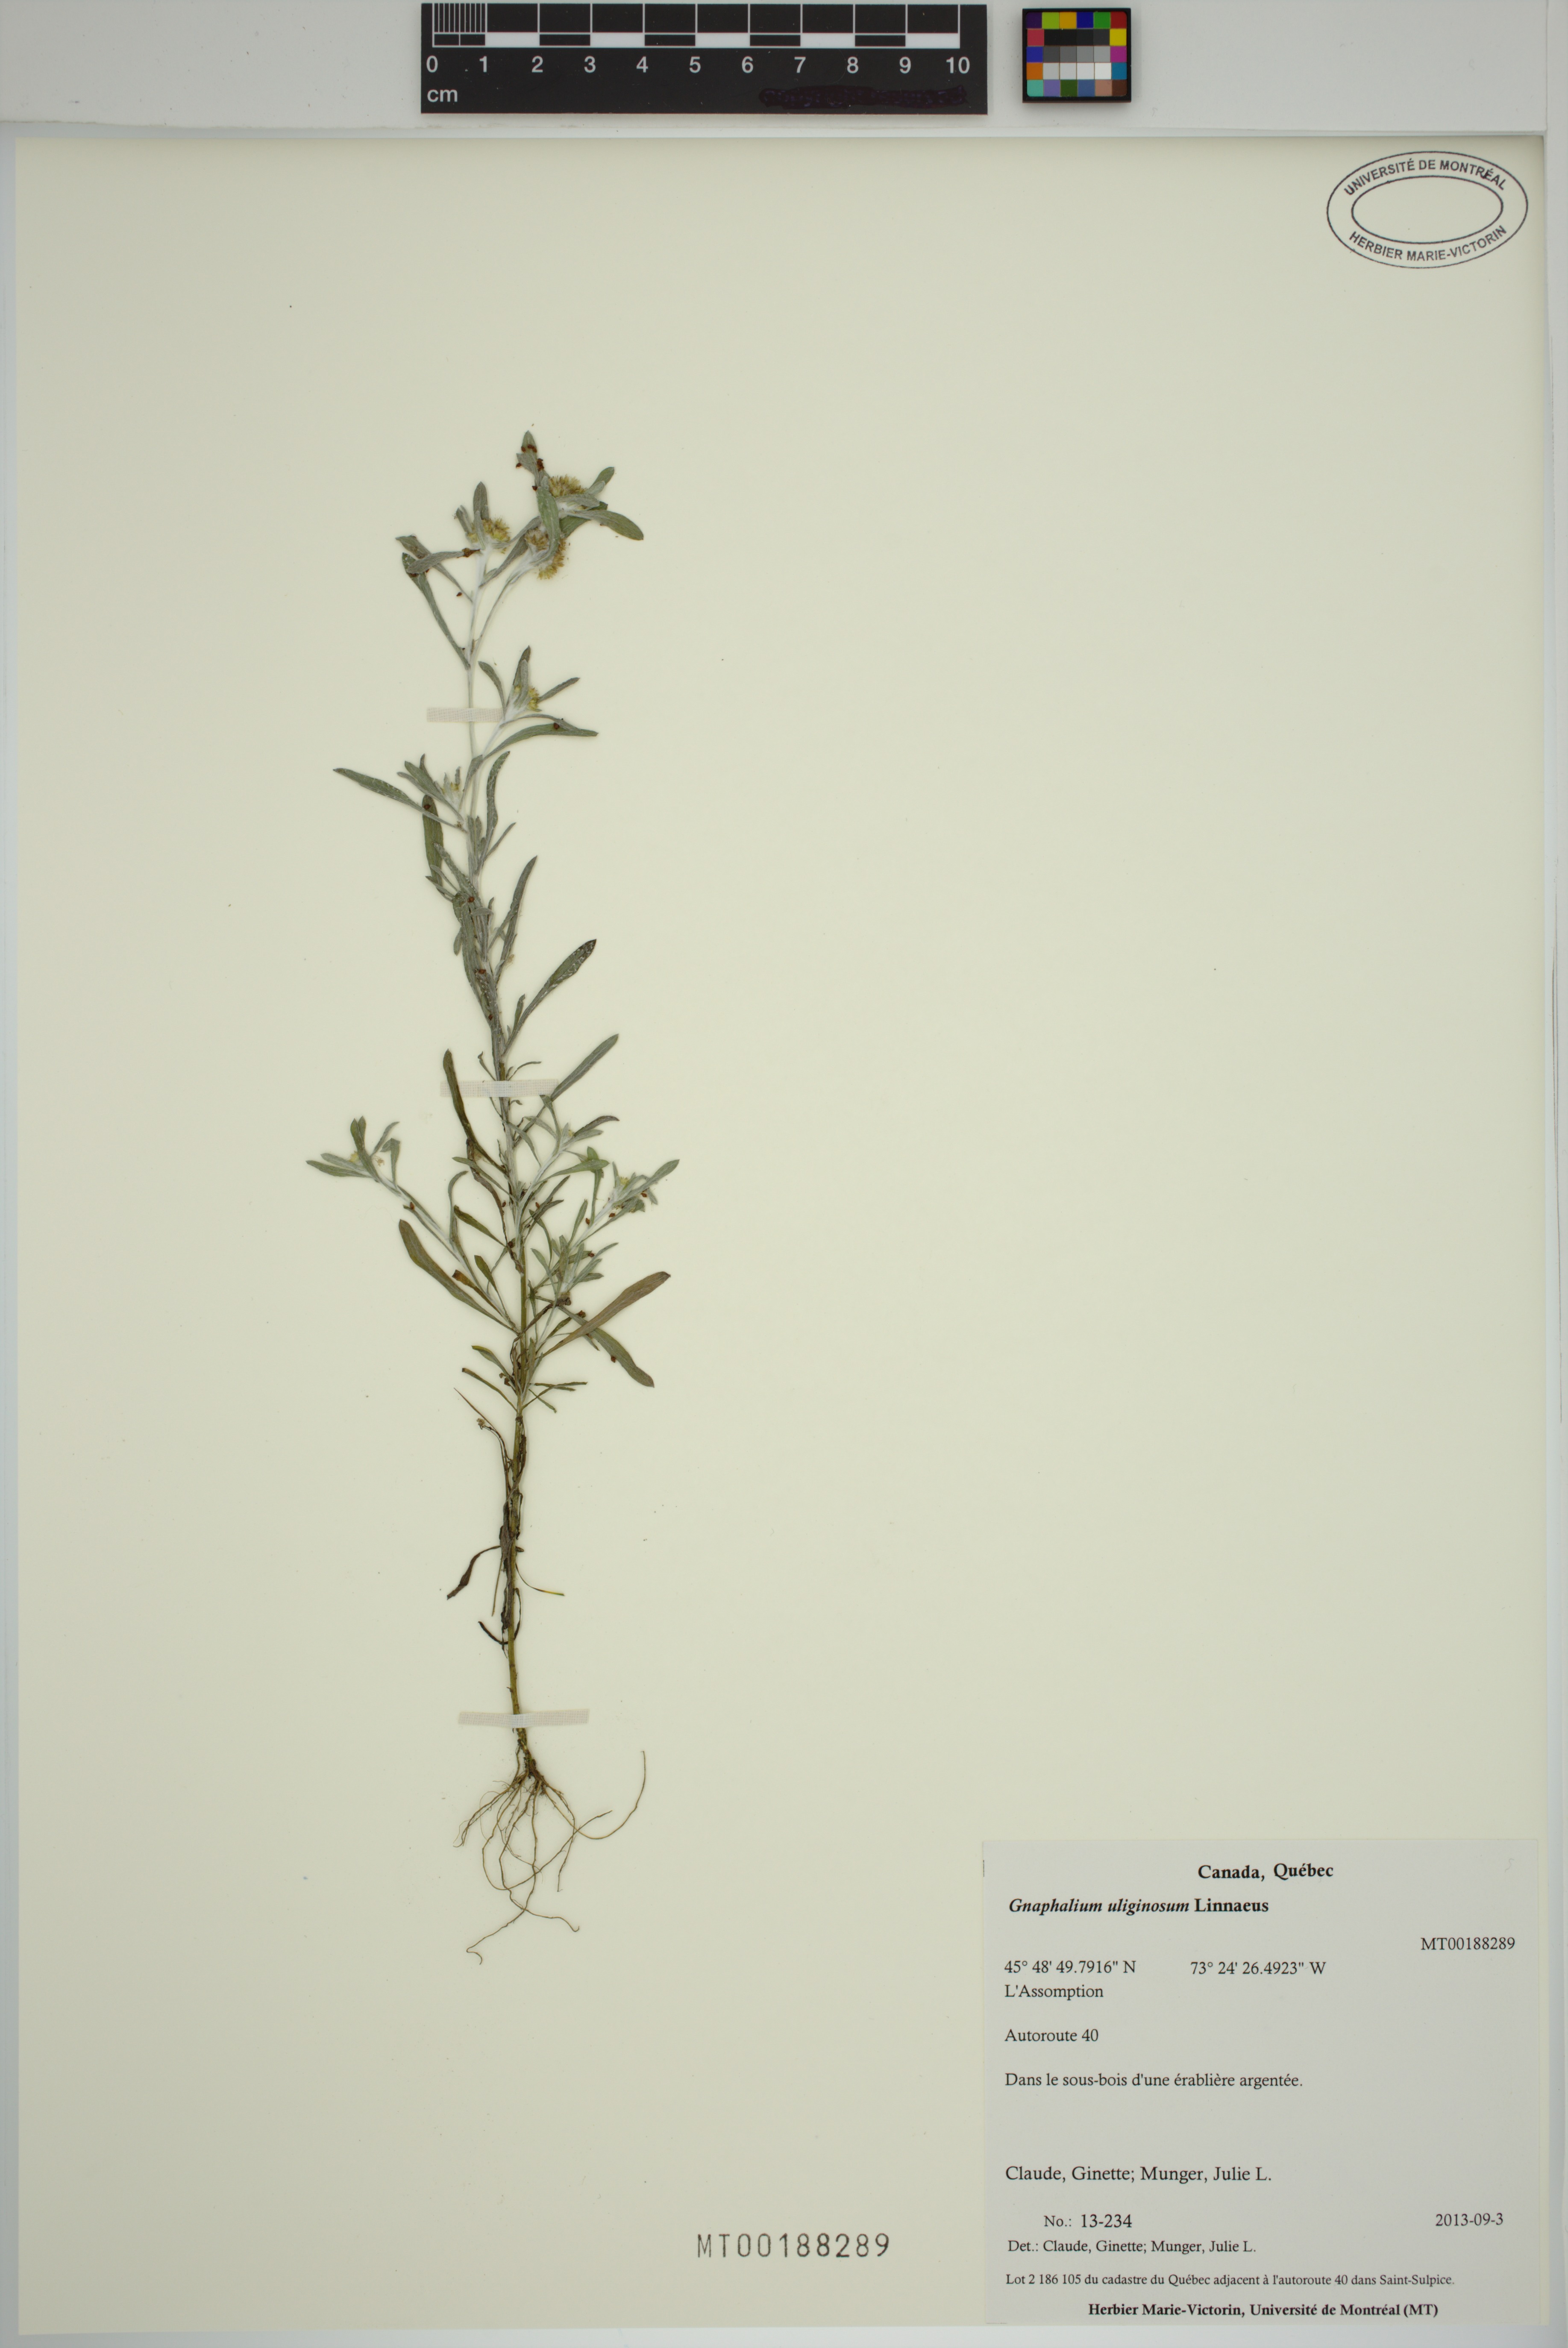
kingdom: Plantae
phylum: Tracheophyta
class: Magnoliopsida
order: Asterales
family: Asteraceae
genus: Gnaphalium
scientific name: Gnaphalium uliginosum
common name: Marsh cudweed
